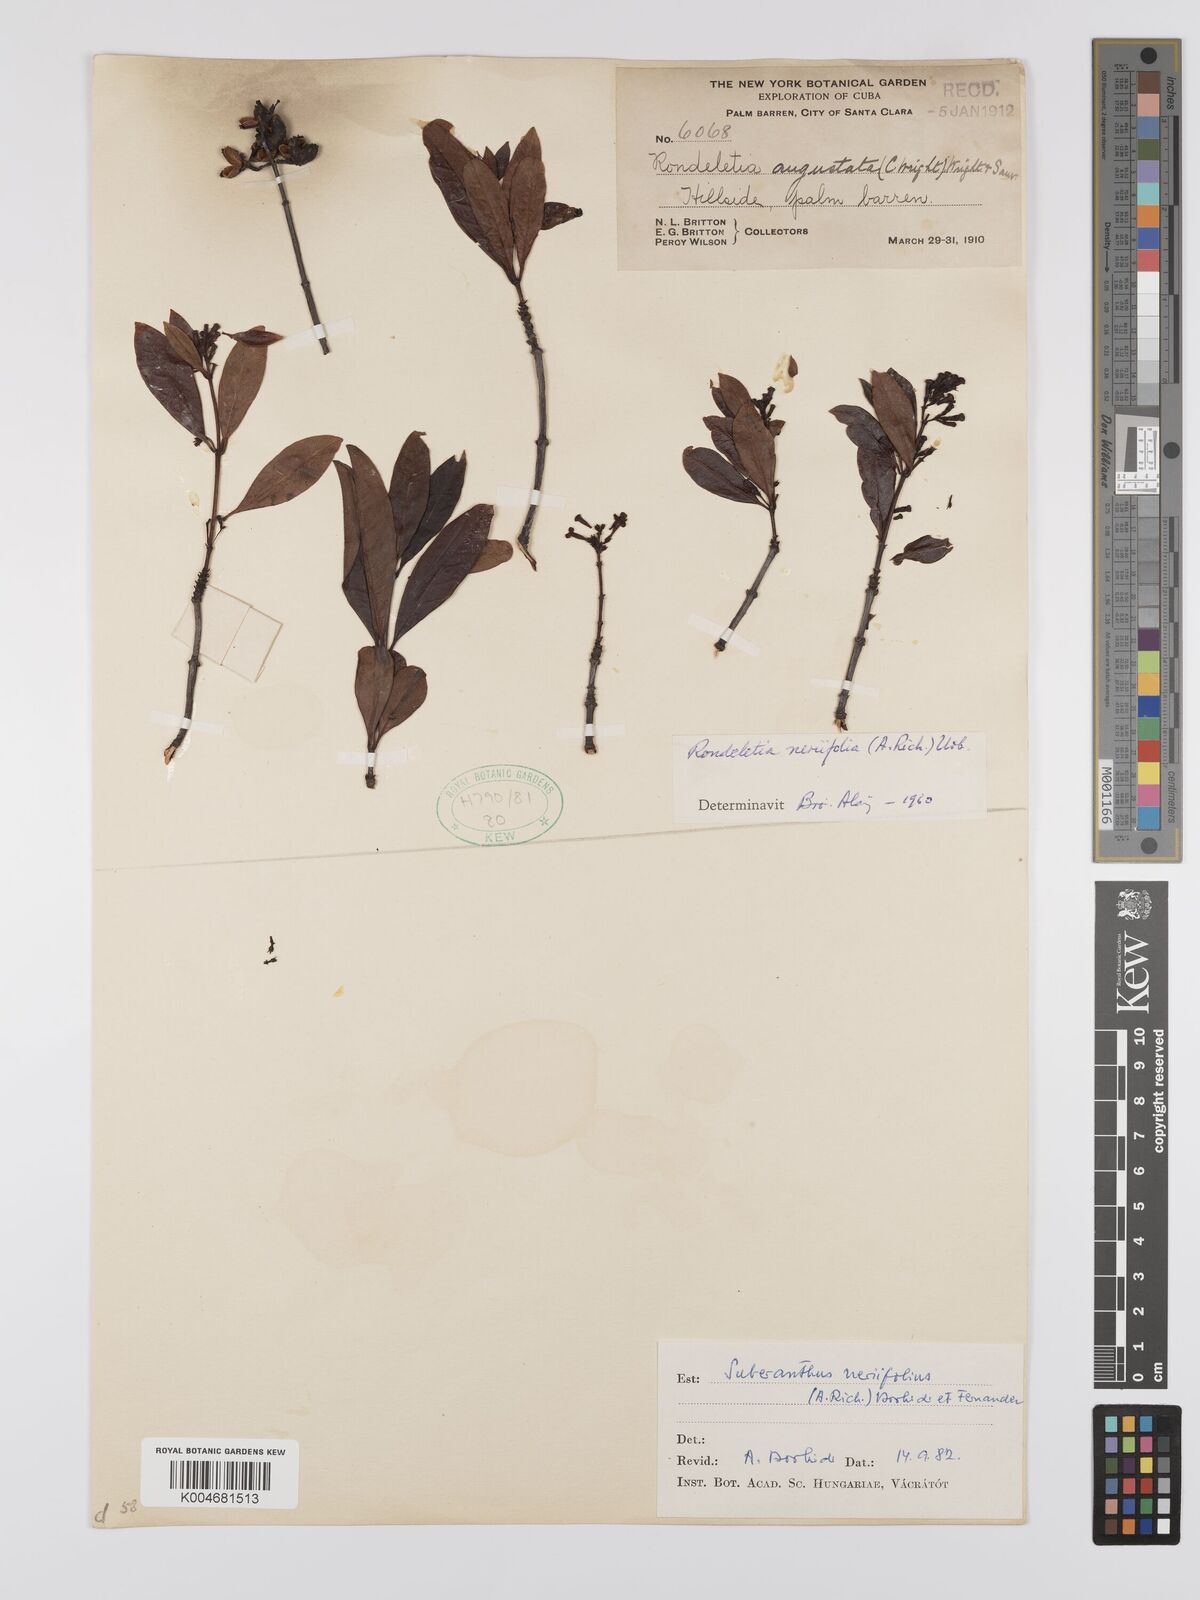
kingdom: Plantae
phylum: Tracheophyta
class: Magnoliopsida
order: Gentianales
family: Rubiaceae
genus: Suberanthus
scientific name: Suberanthus neriifolius
